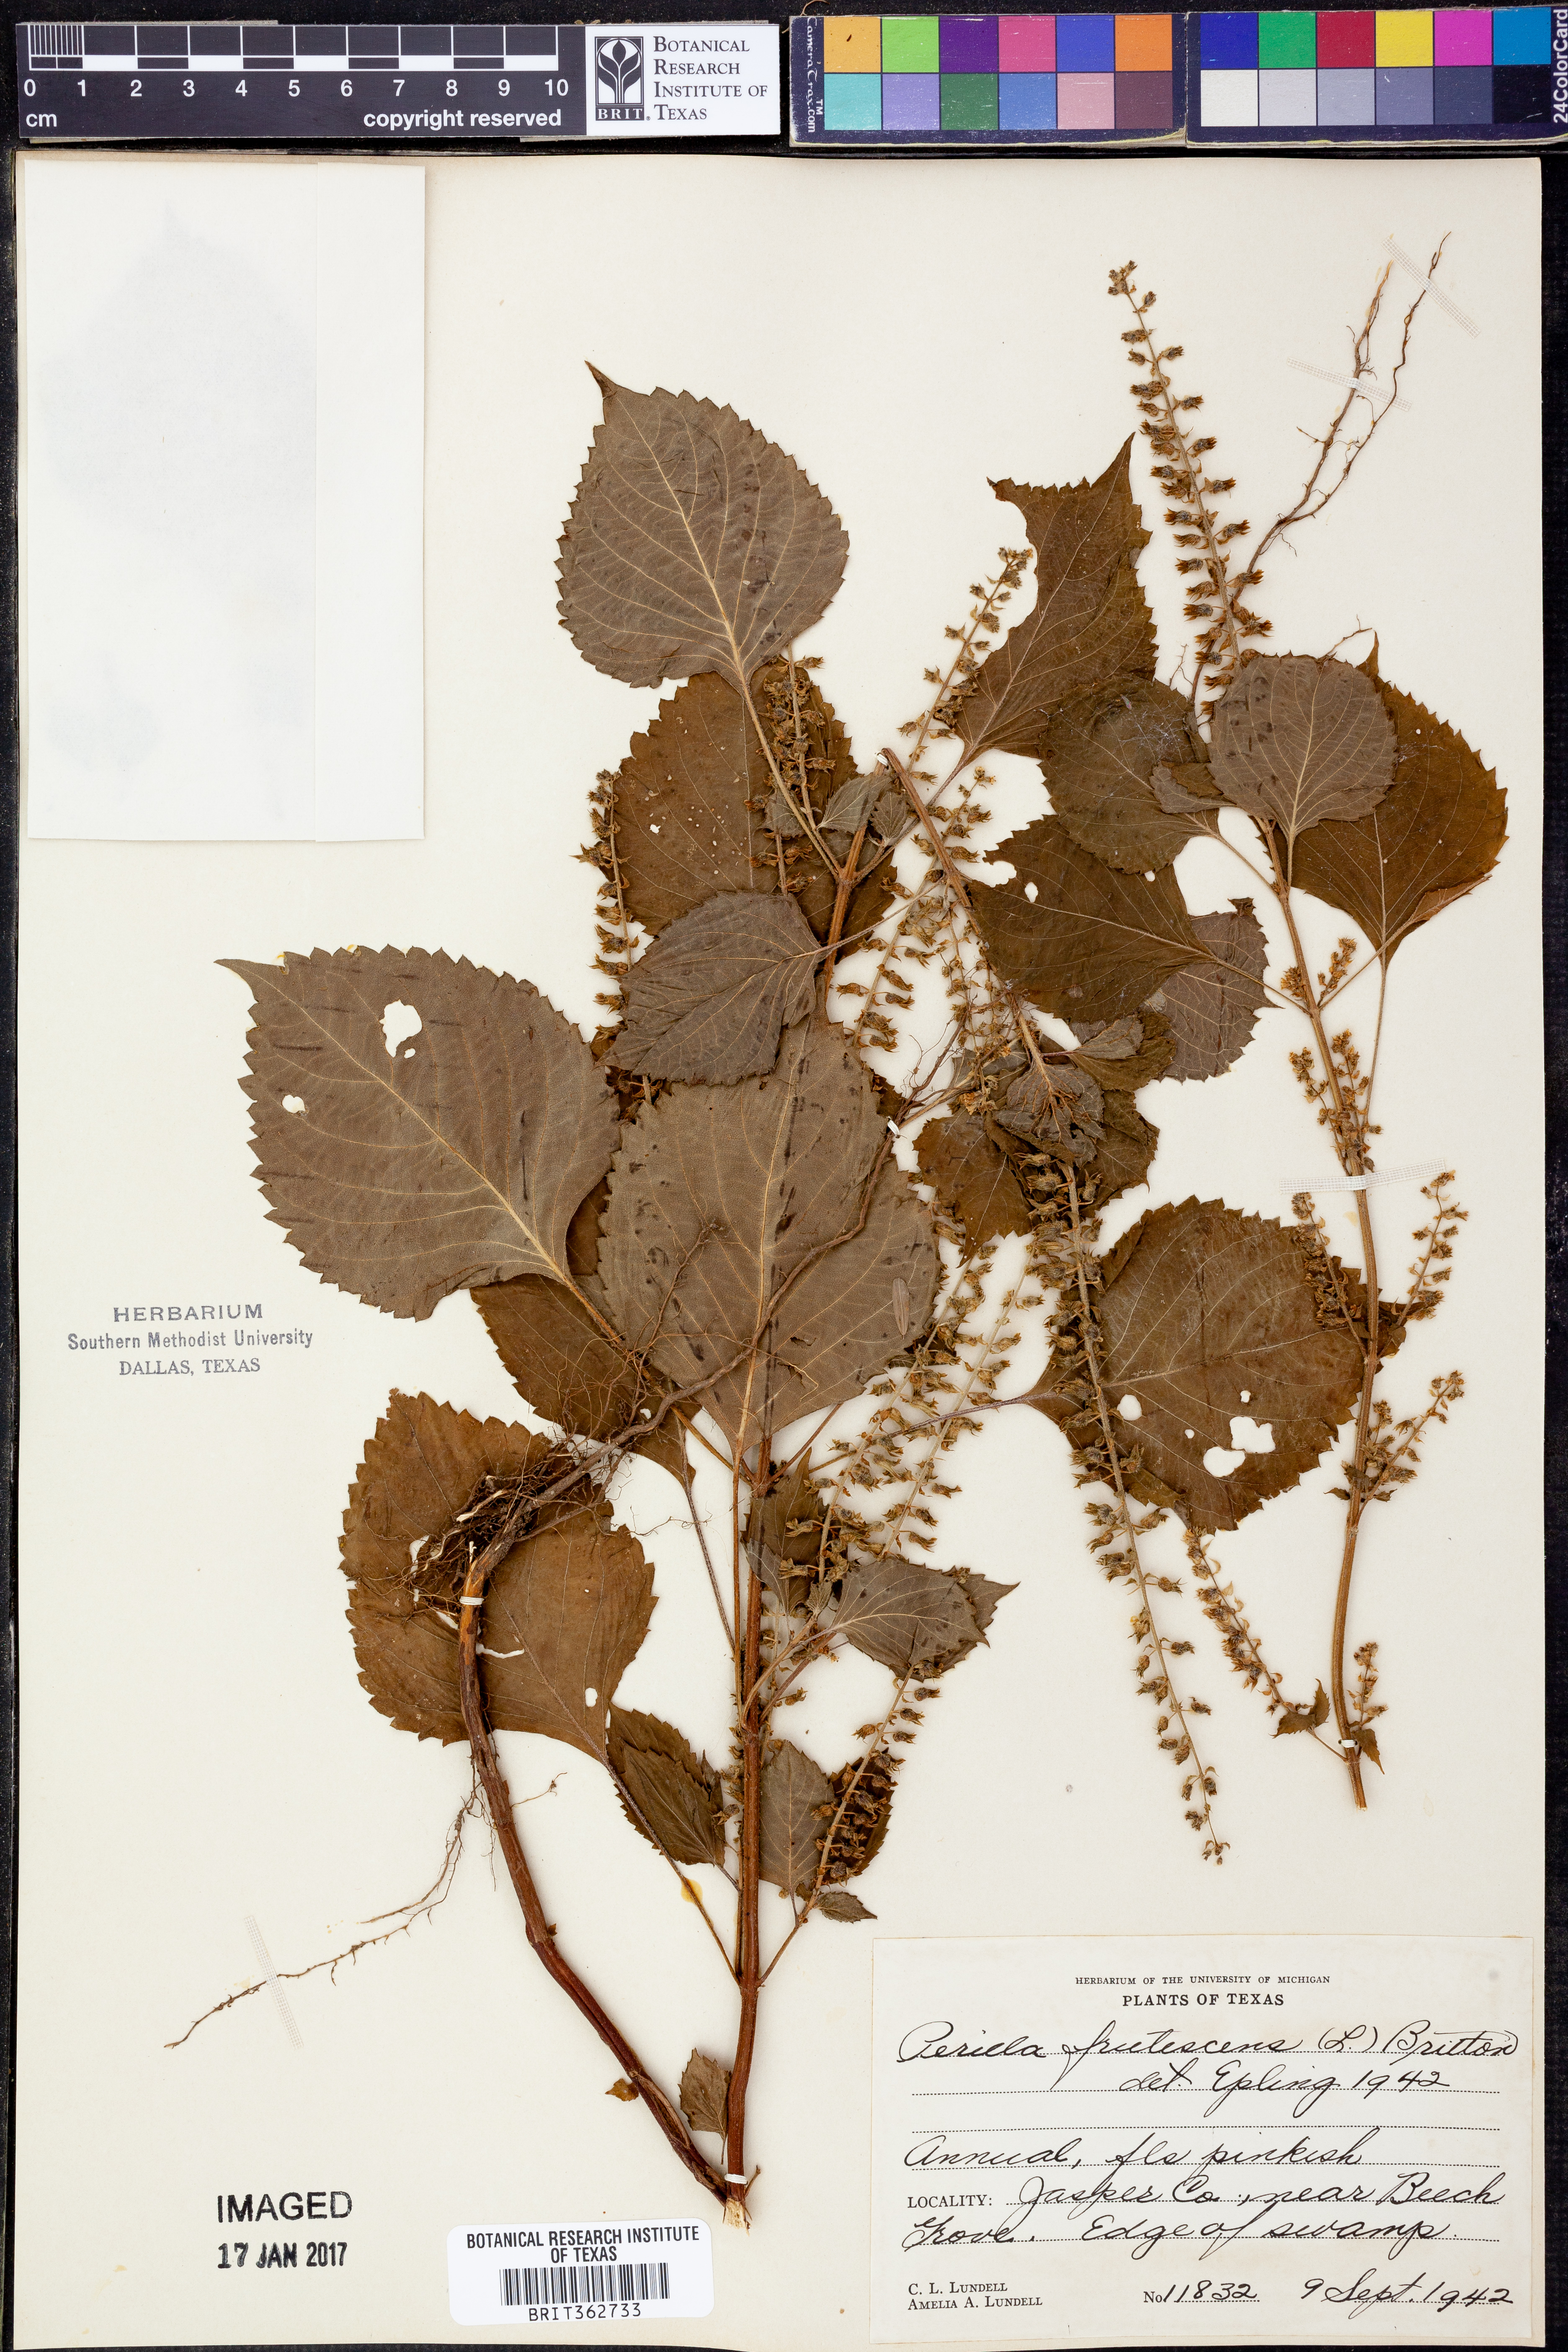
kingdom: Plantae
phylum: Tracheophyta
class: Magnoliopsida
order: Lamiales
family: Lamiaceae
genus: Perilla
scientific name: Perilla frutescens
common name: Perilla
